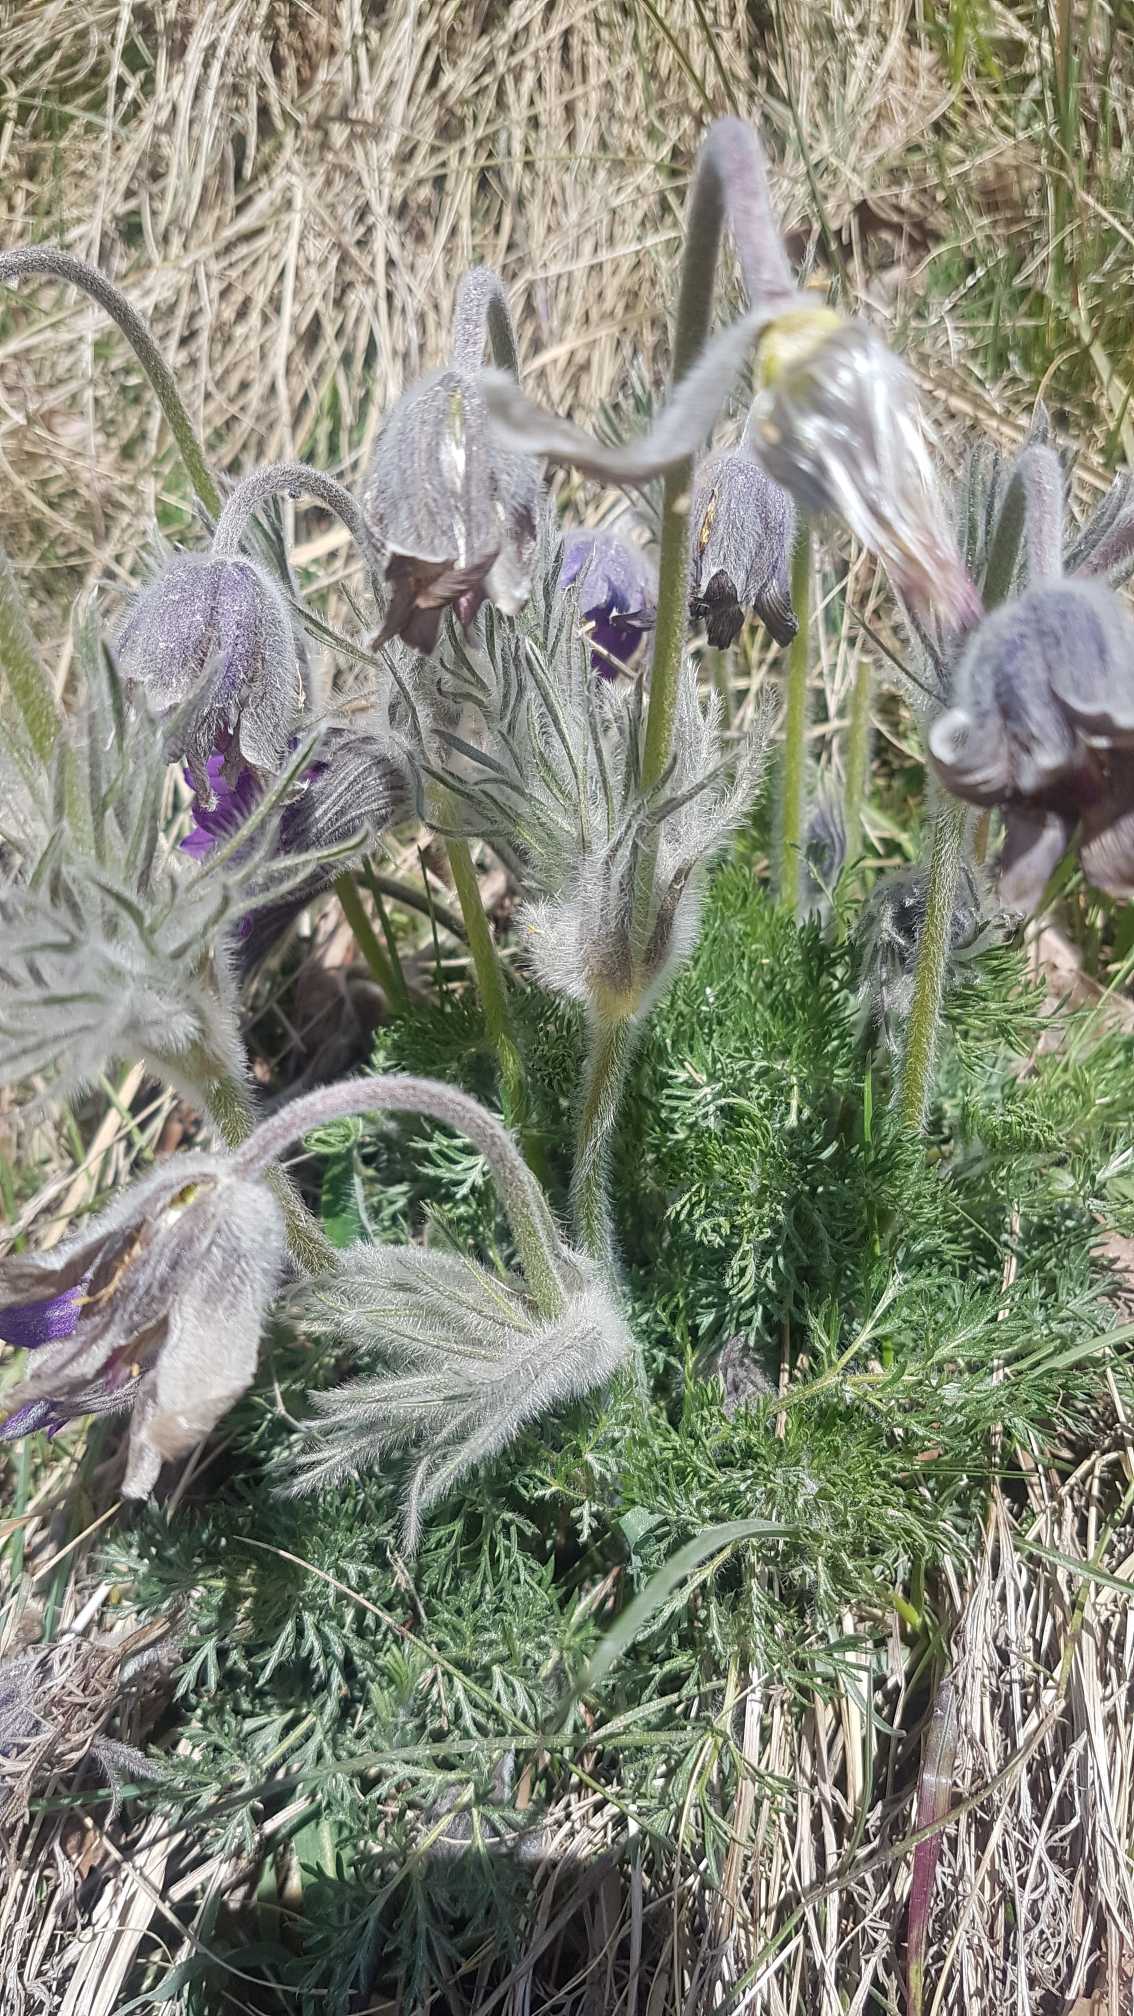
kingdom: Plantae
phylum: Tracheophyta
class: Magnoliopsida
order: Ranunculales
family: Ranunculaceae
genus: Pulsatilla
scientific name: Pulsatilla vulgaris
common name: Opret kobjælde
